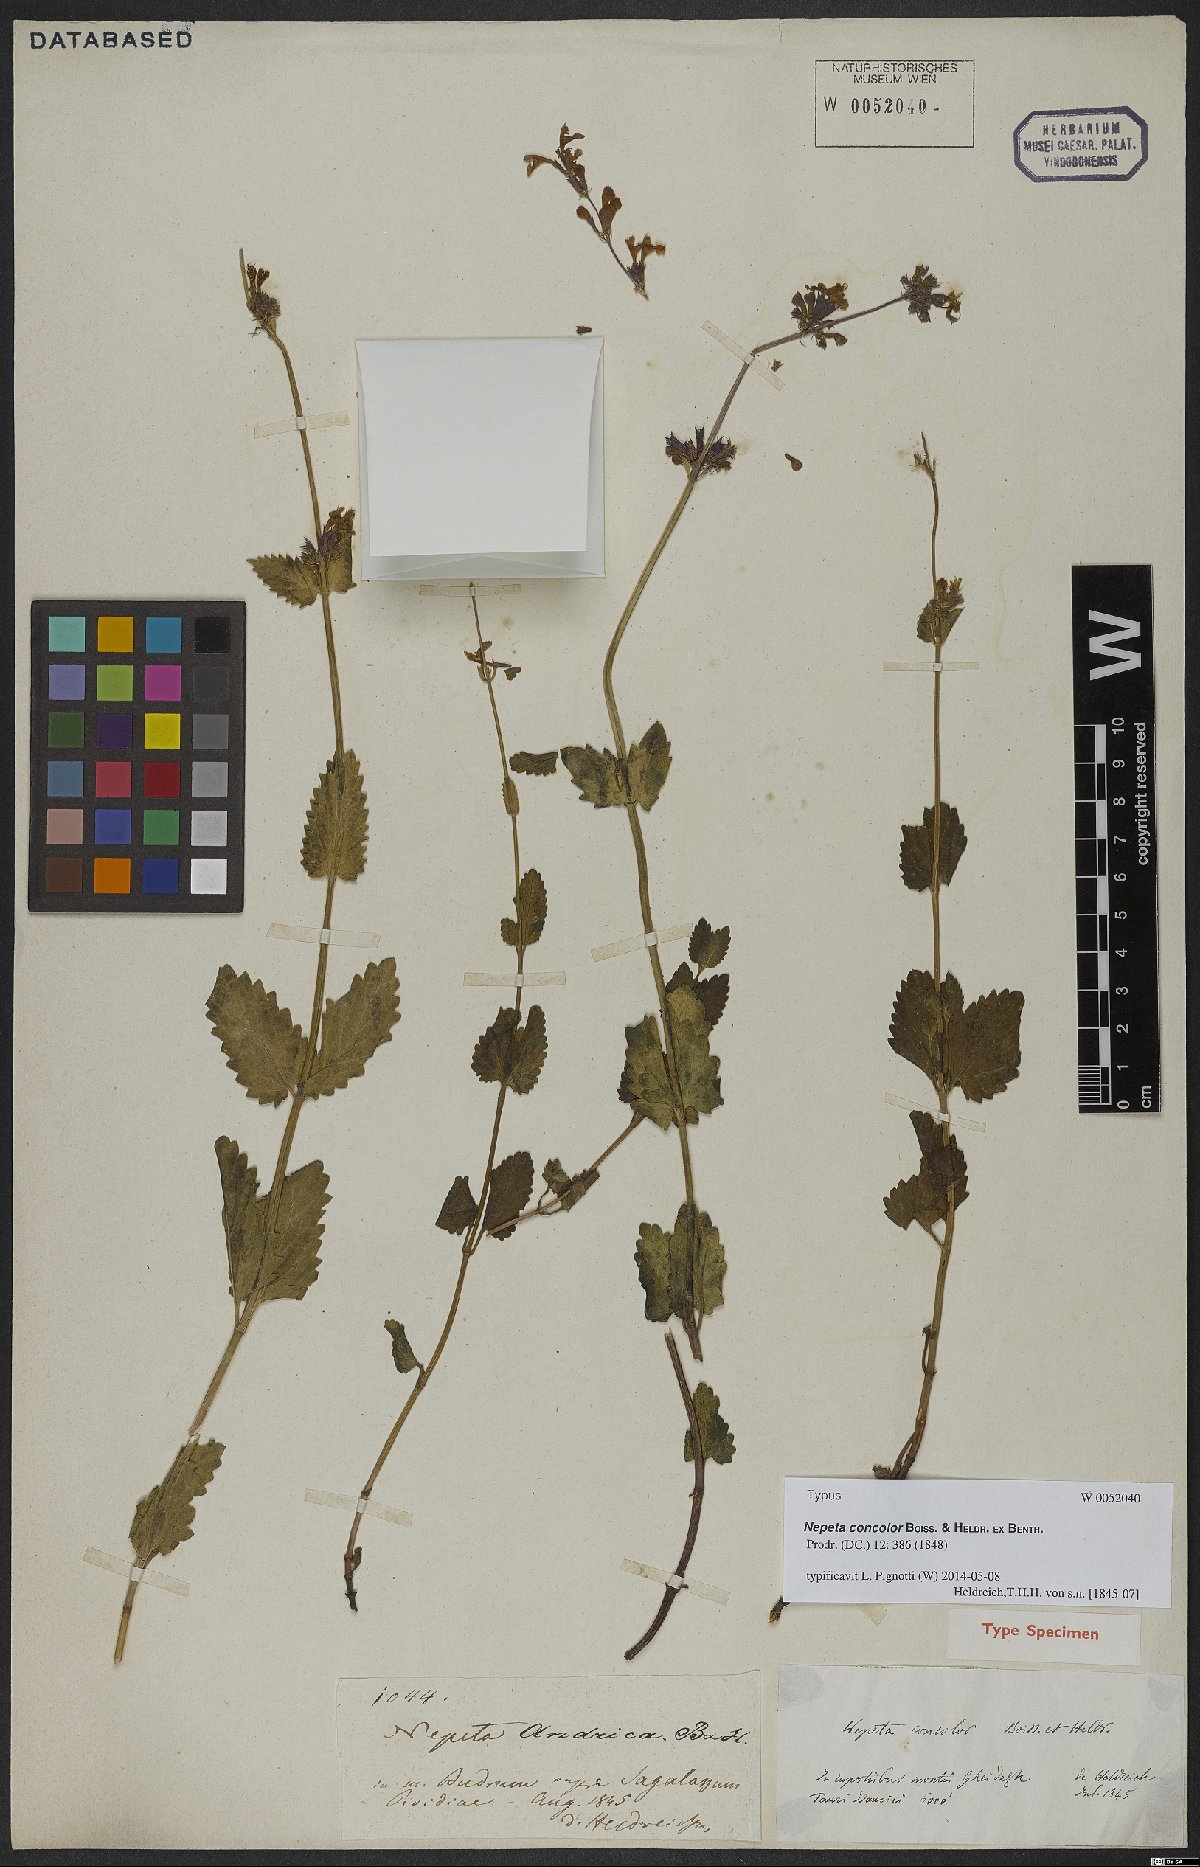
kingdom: Plantae
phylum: Tracheophyta
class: Magnoliopsida
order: Lamiales
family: Lamiaceae
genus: Nepeta
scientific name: Nepeta concolor
